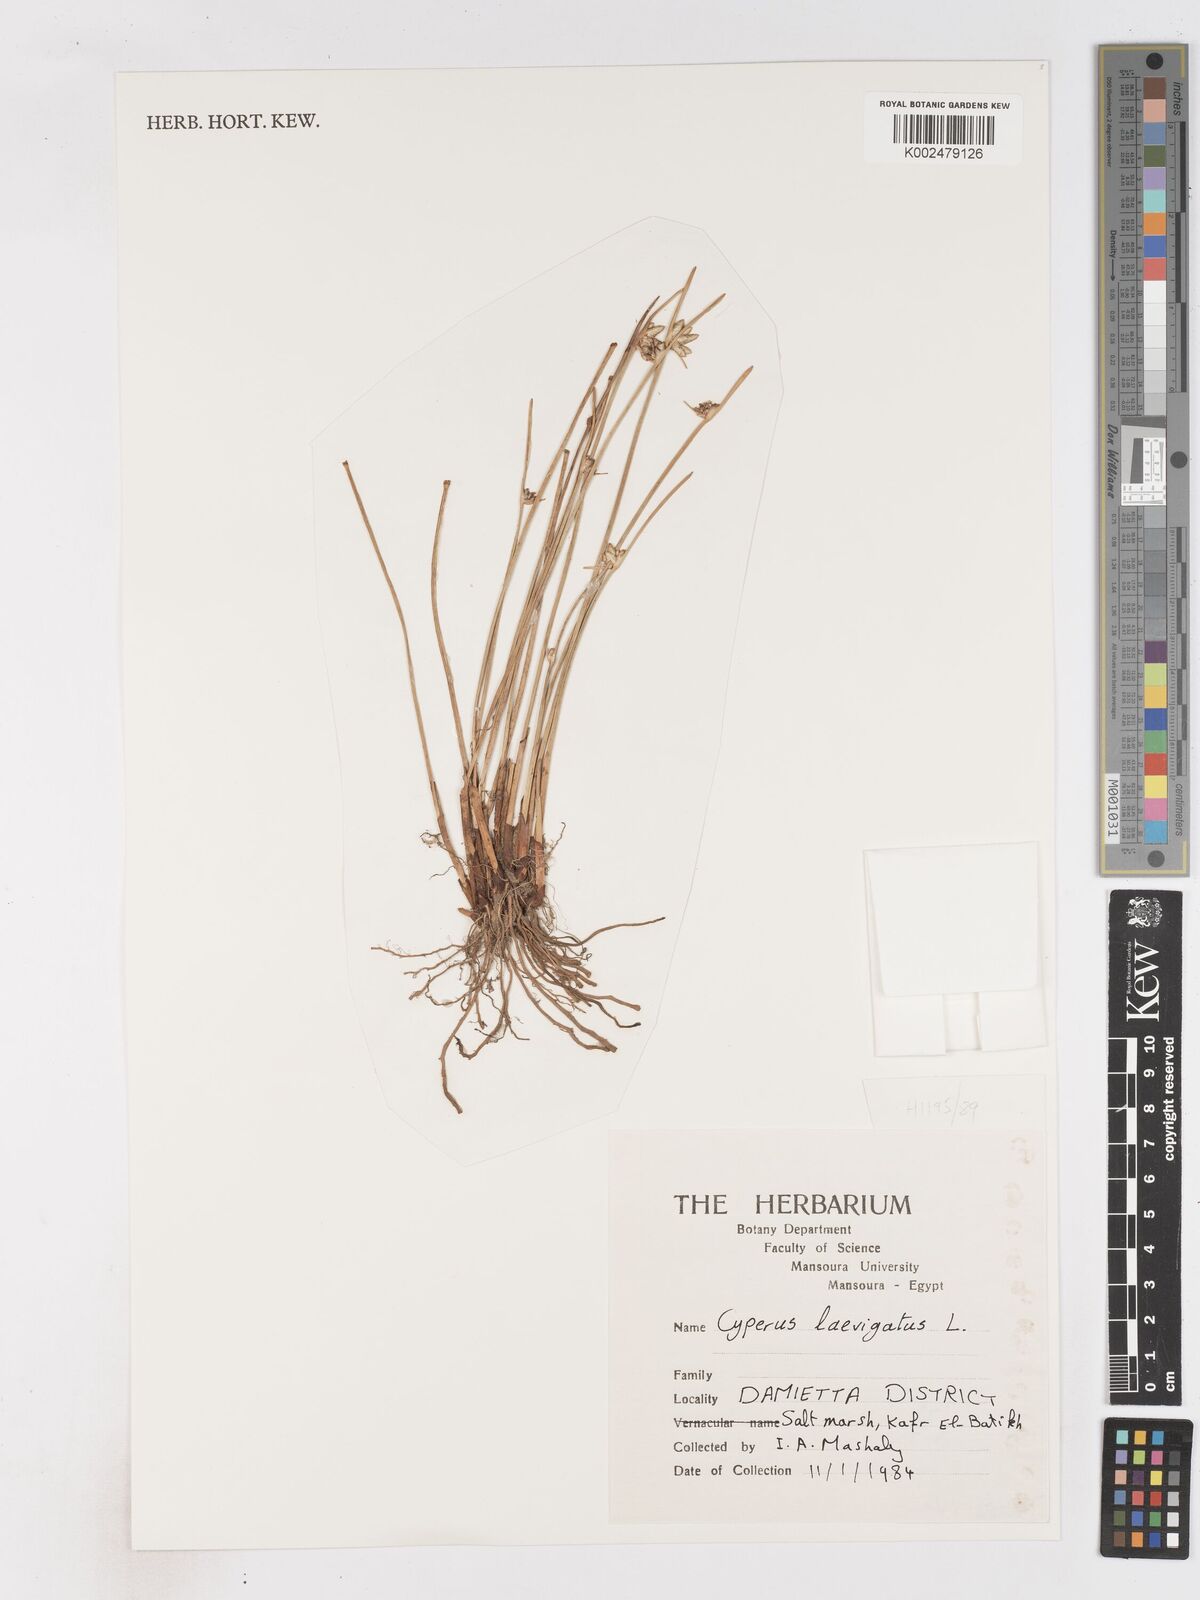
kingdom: Plantae
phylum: Tracheophyta
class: Liliopsida
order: Poales
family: Cyperaceae
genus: Cyperus
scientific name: Cyperus laevigatus
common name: Smooth flat sedge
